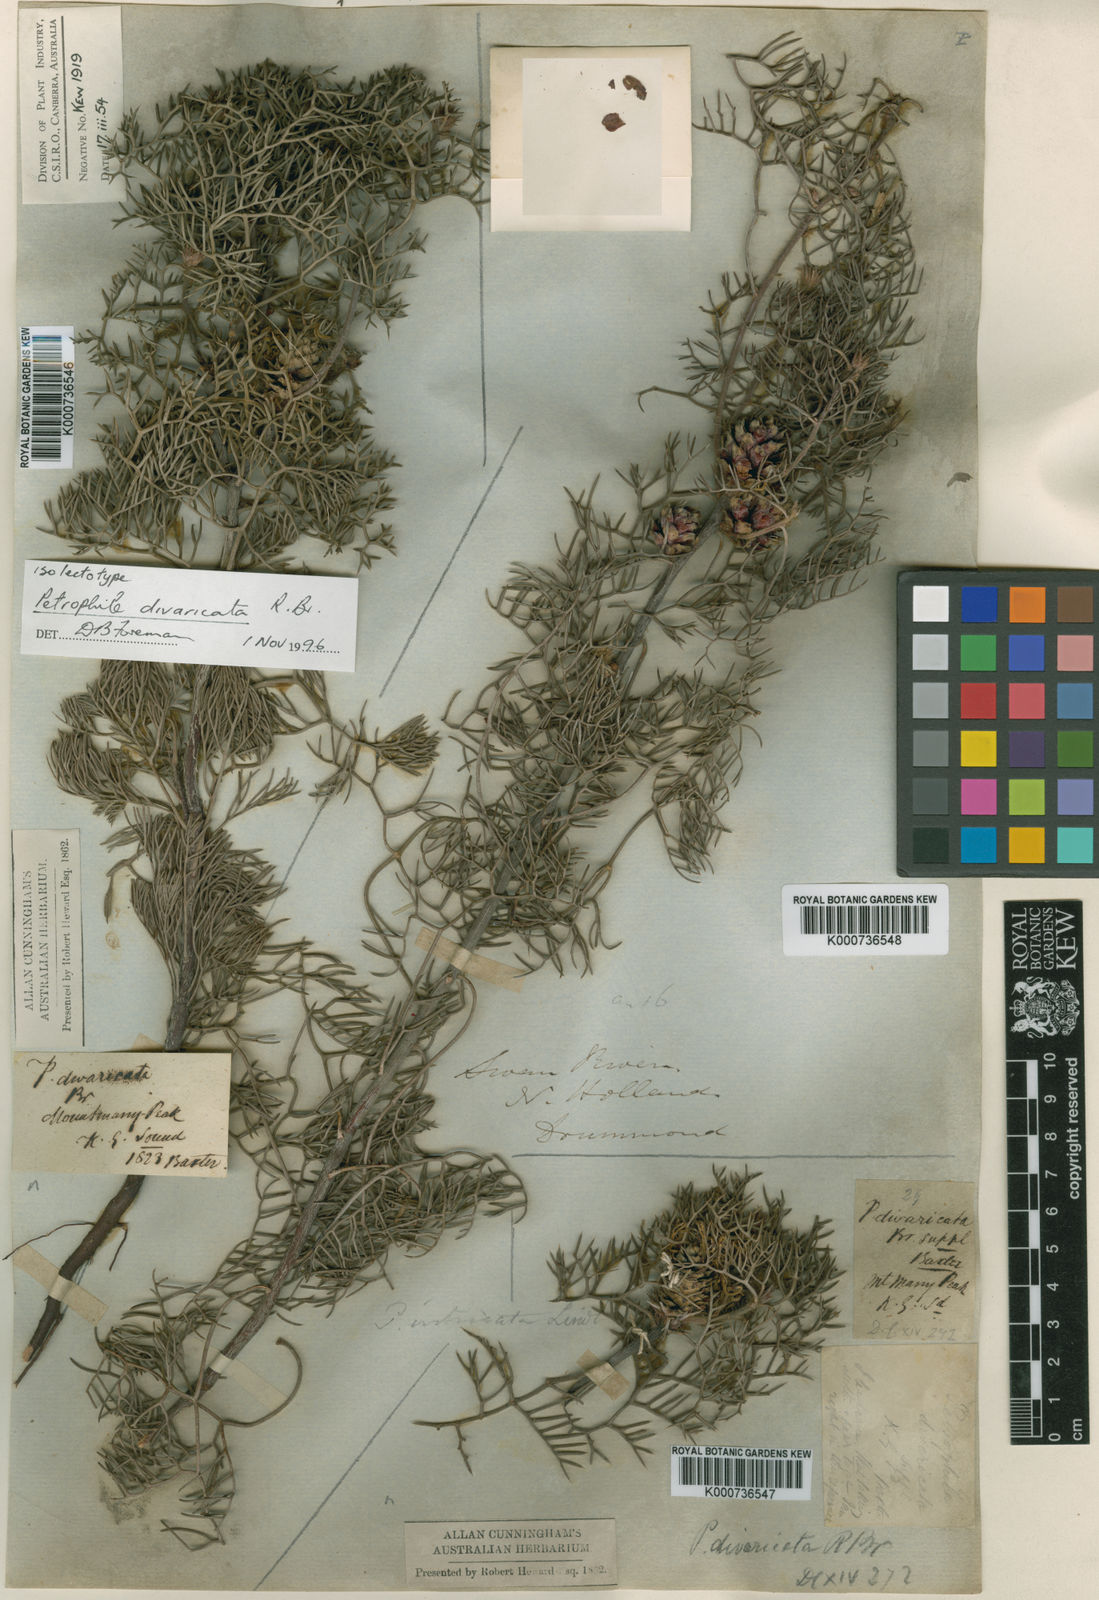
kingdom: Plantae
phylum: Tracheophyta
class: Magnoliopsida
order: Proteales
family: Proteaceae
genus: Petrophile
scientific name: Petrophile divaricata
